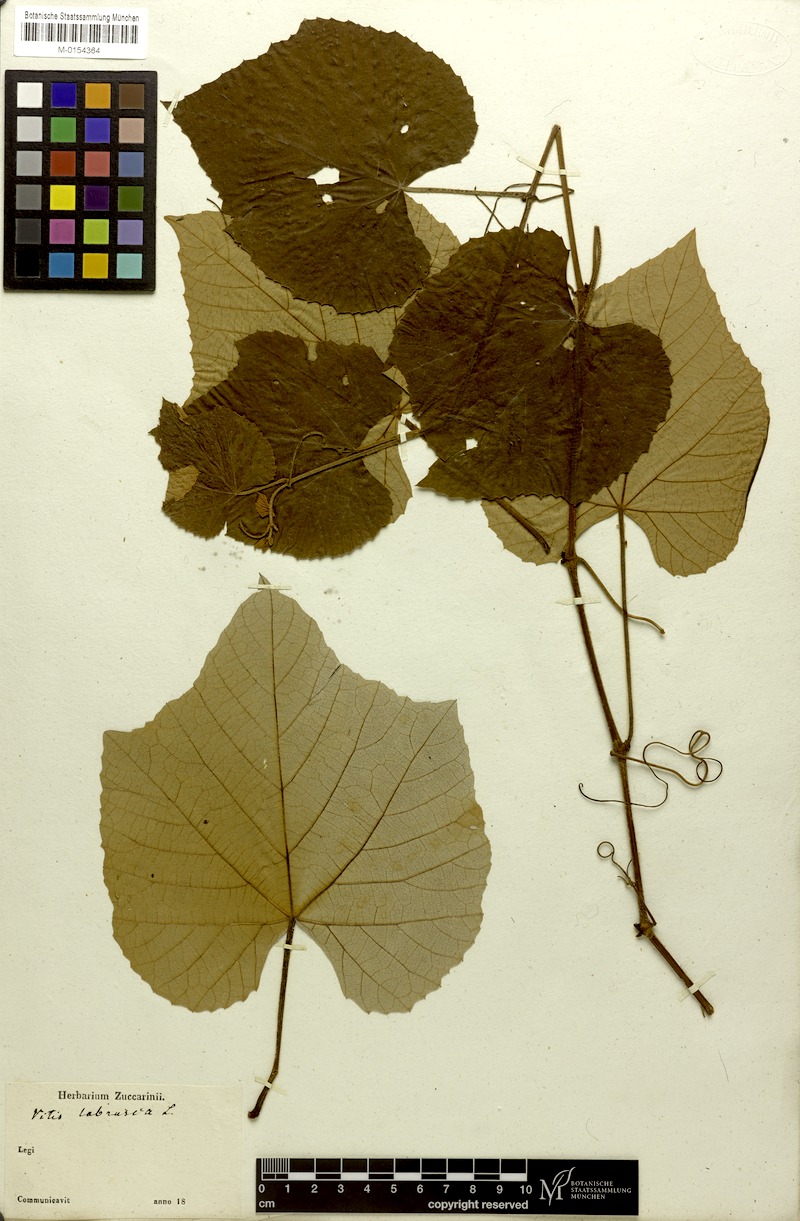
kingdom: Plantae
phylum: Tracheophyta
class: Magnoliopsida
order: Vitales
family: Vitaceae
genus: Vitis
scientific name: Vitis labrusca
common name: Concord grape
